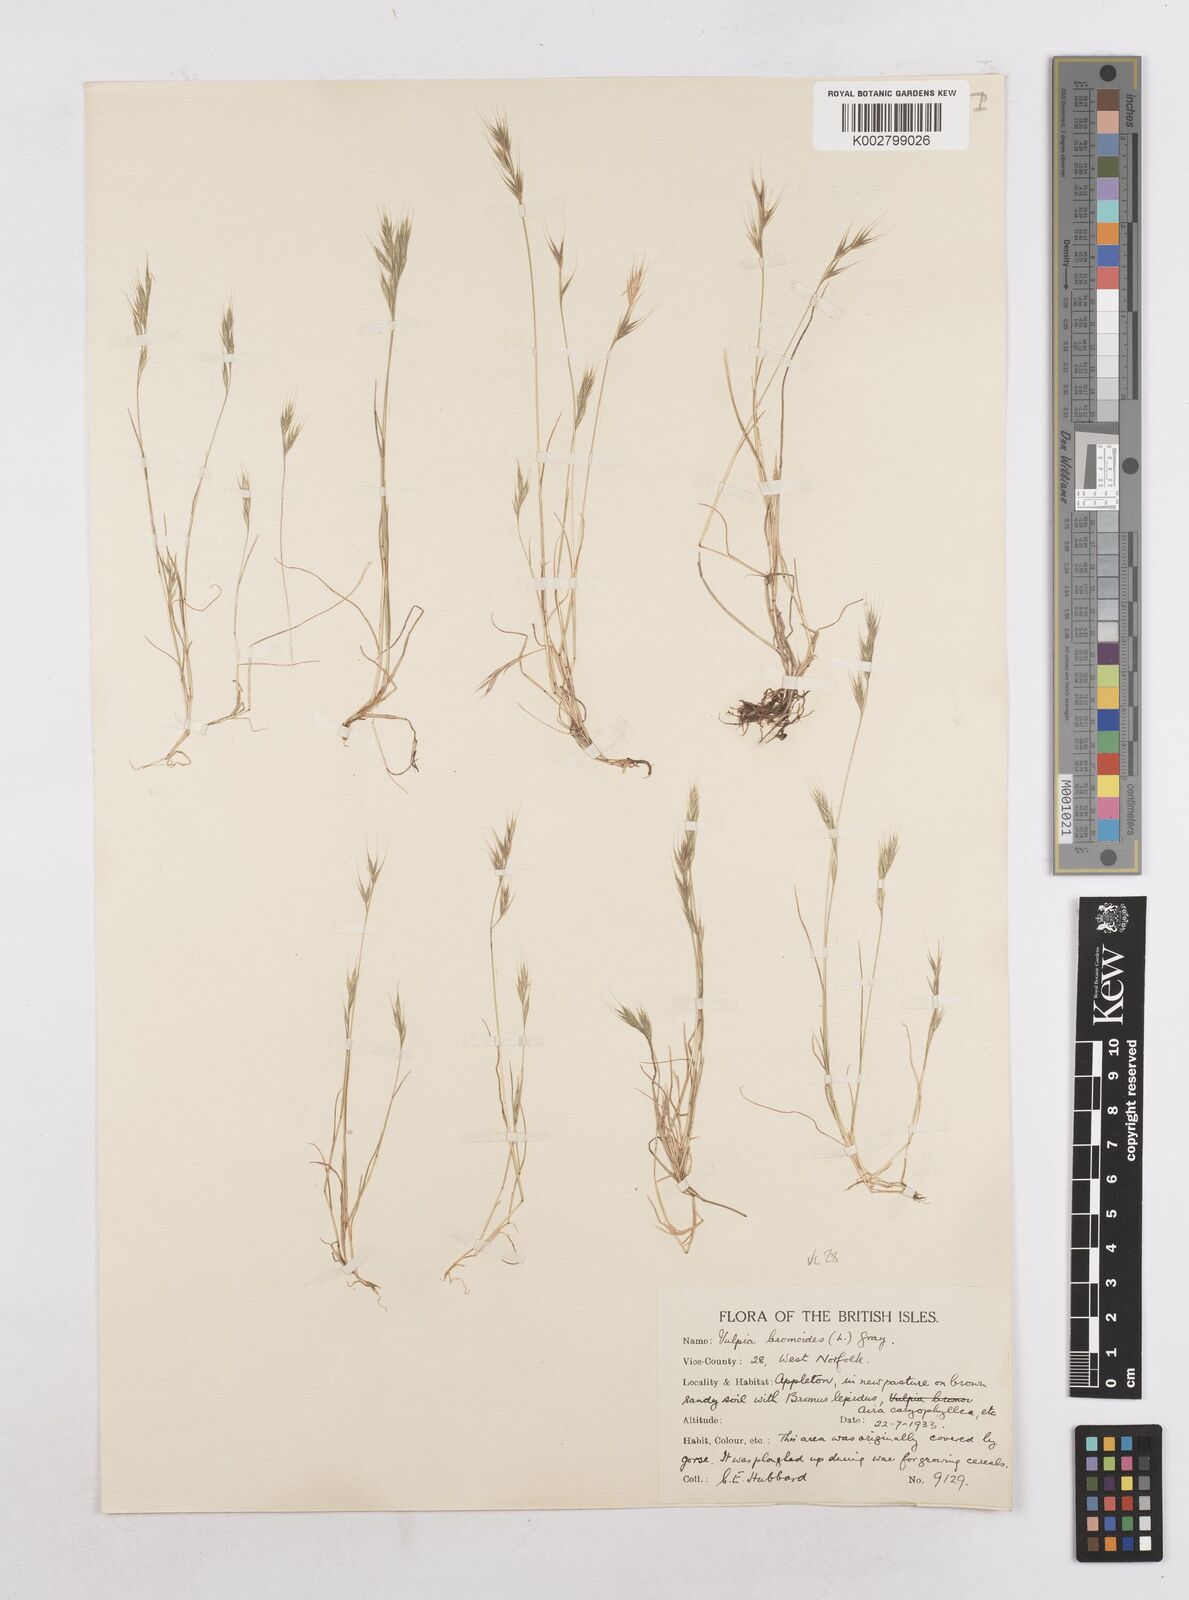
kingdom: Plantae
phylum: Tracheophyta
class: Liliopsida
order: Poales
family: Poaceae
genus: Festuca
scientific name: Festuca bromoides
